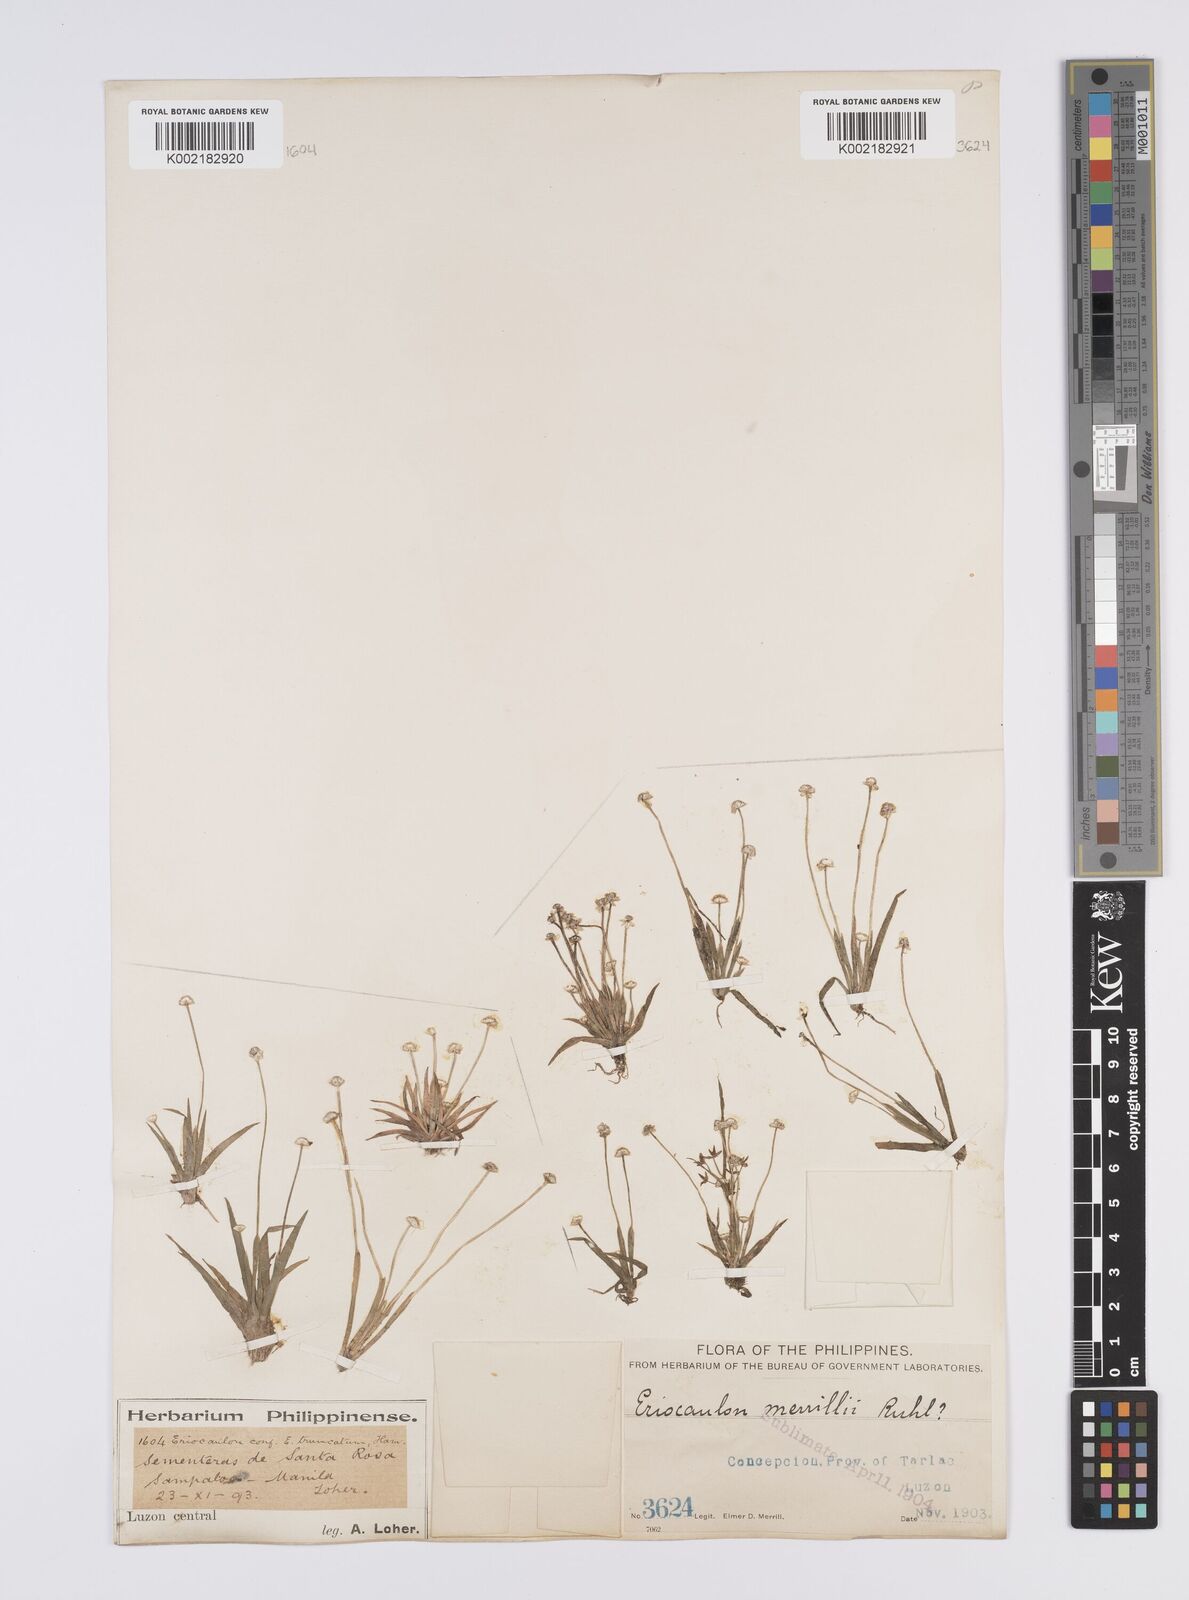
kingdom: Plantae
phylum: Tracheophyta
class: Liliopsida
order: Poales
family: Eriocaulaceae
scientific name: Eriocaulaceae
